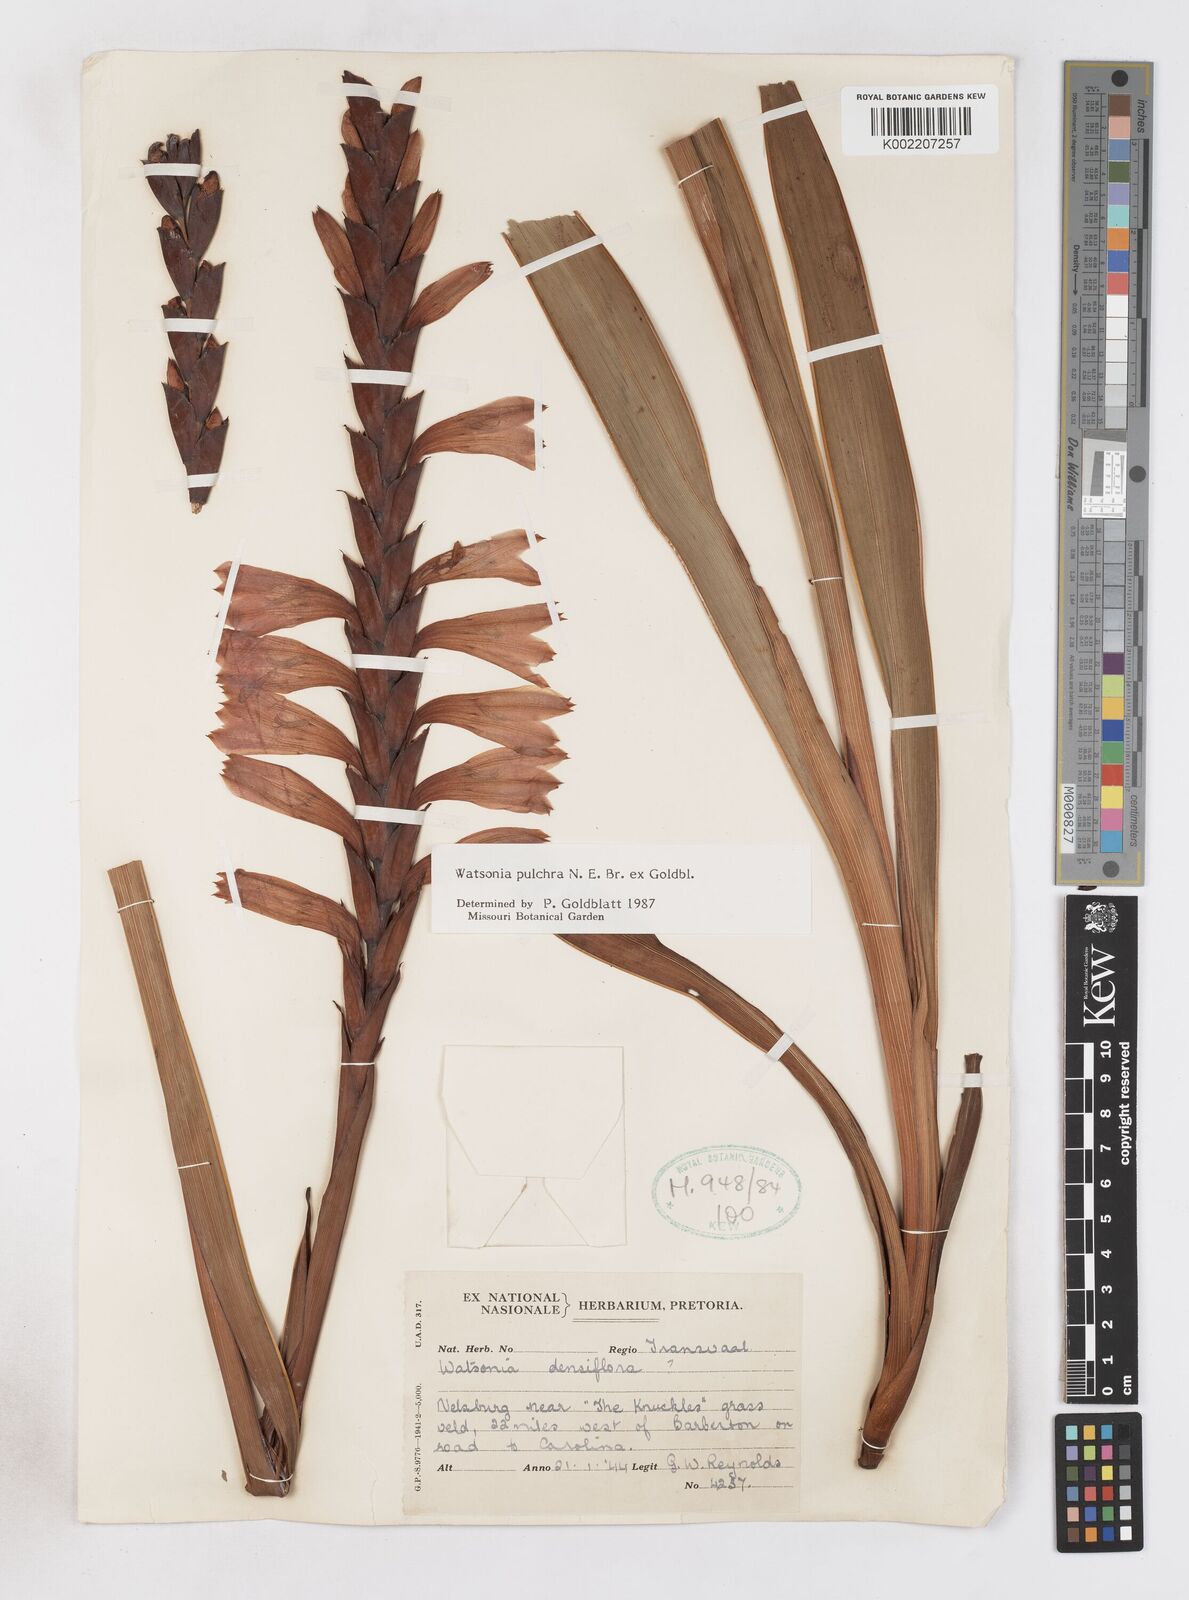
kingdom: Plantae
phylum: Tracheophyta
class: Liliopsida
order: Asparagales
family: Iridaceae
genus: Watsonia
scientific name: Watsonia pulchra
